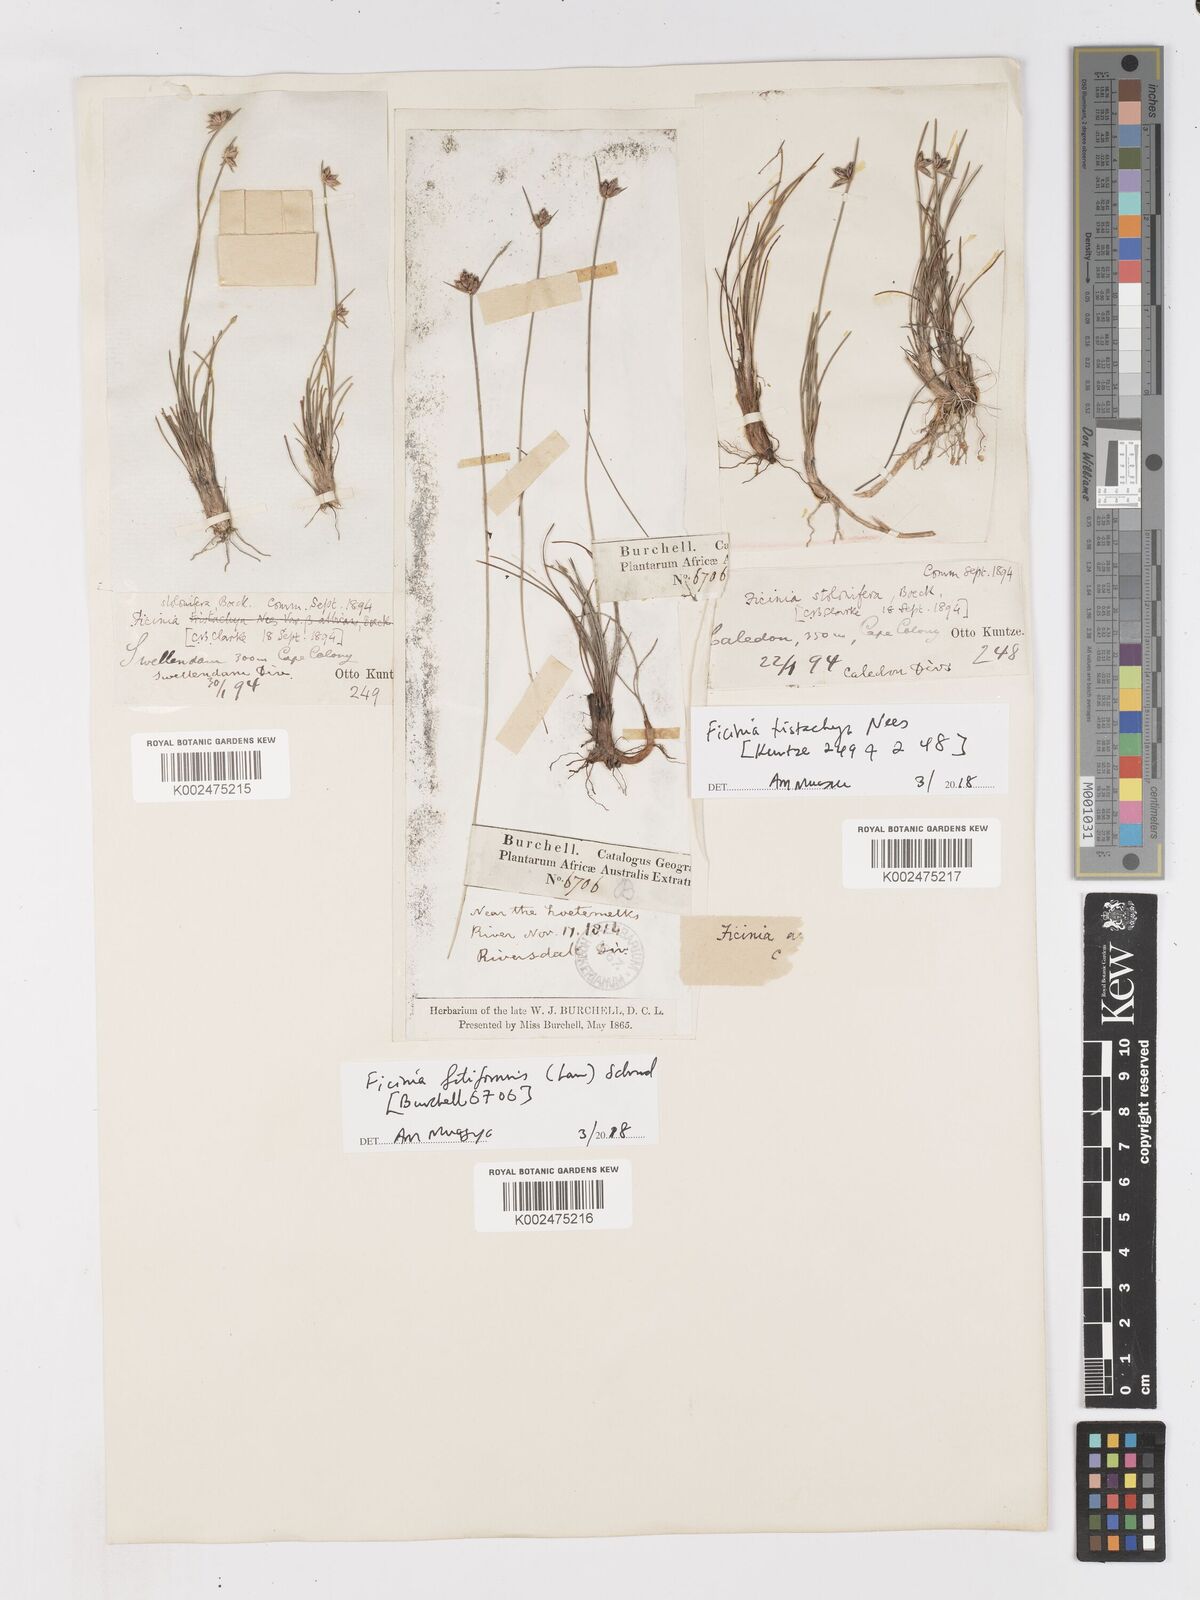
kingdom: Plantae
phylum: Tracheophyta
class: Liliopsida
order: Poales
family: Cyperaceae
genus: Ficinia
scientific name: Ficinia tristachya
